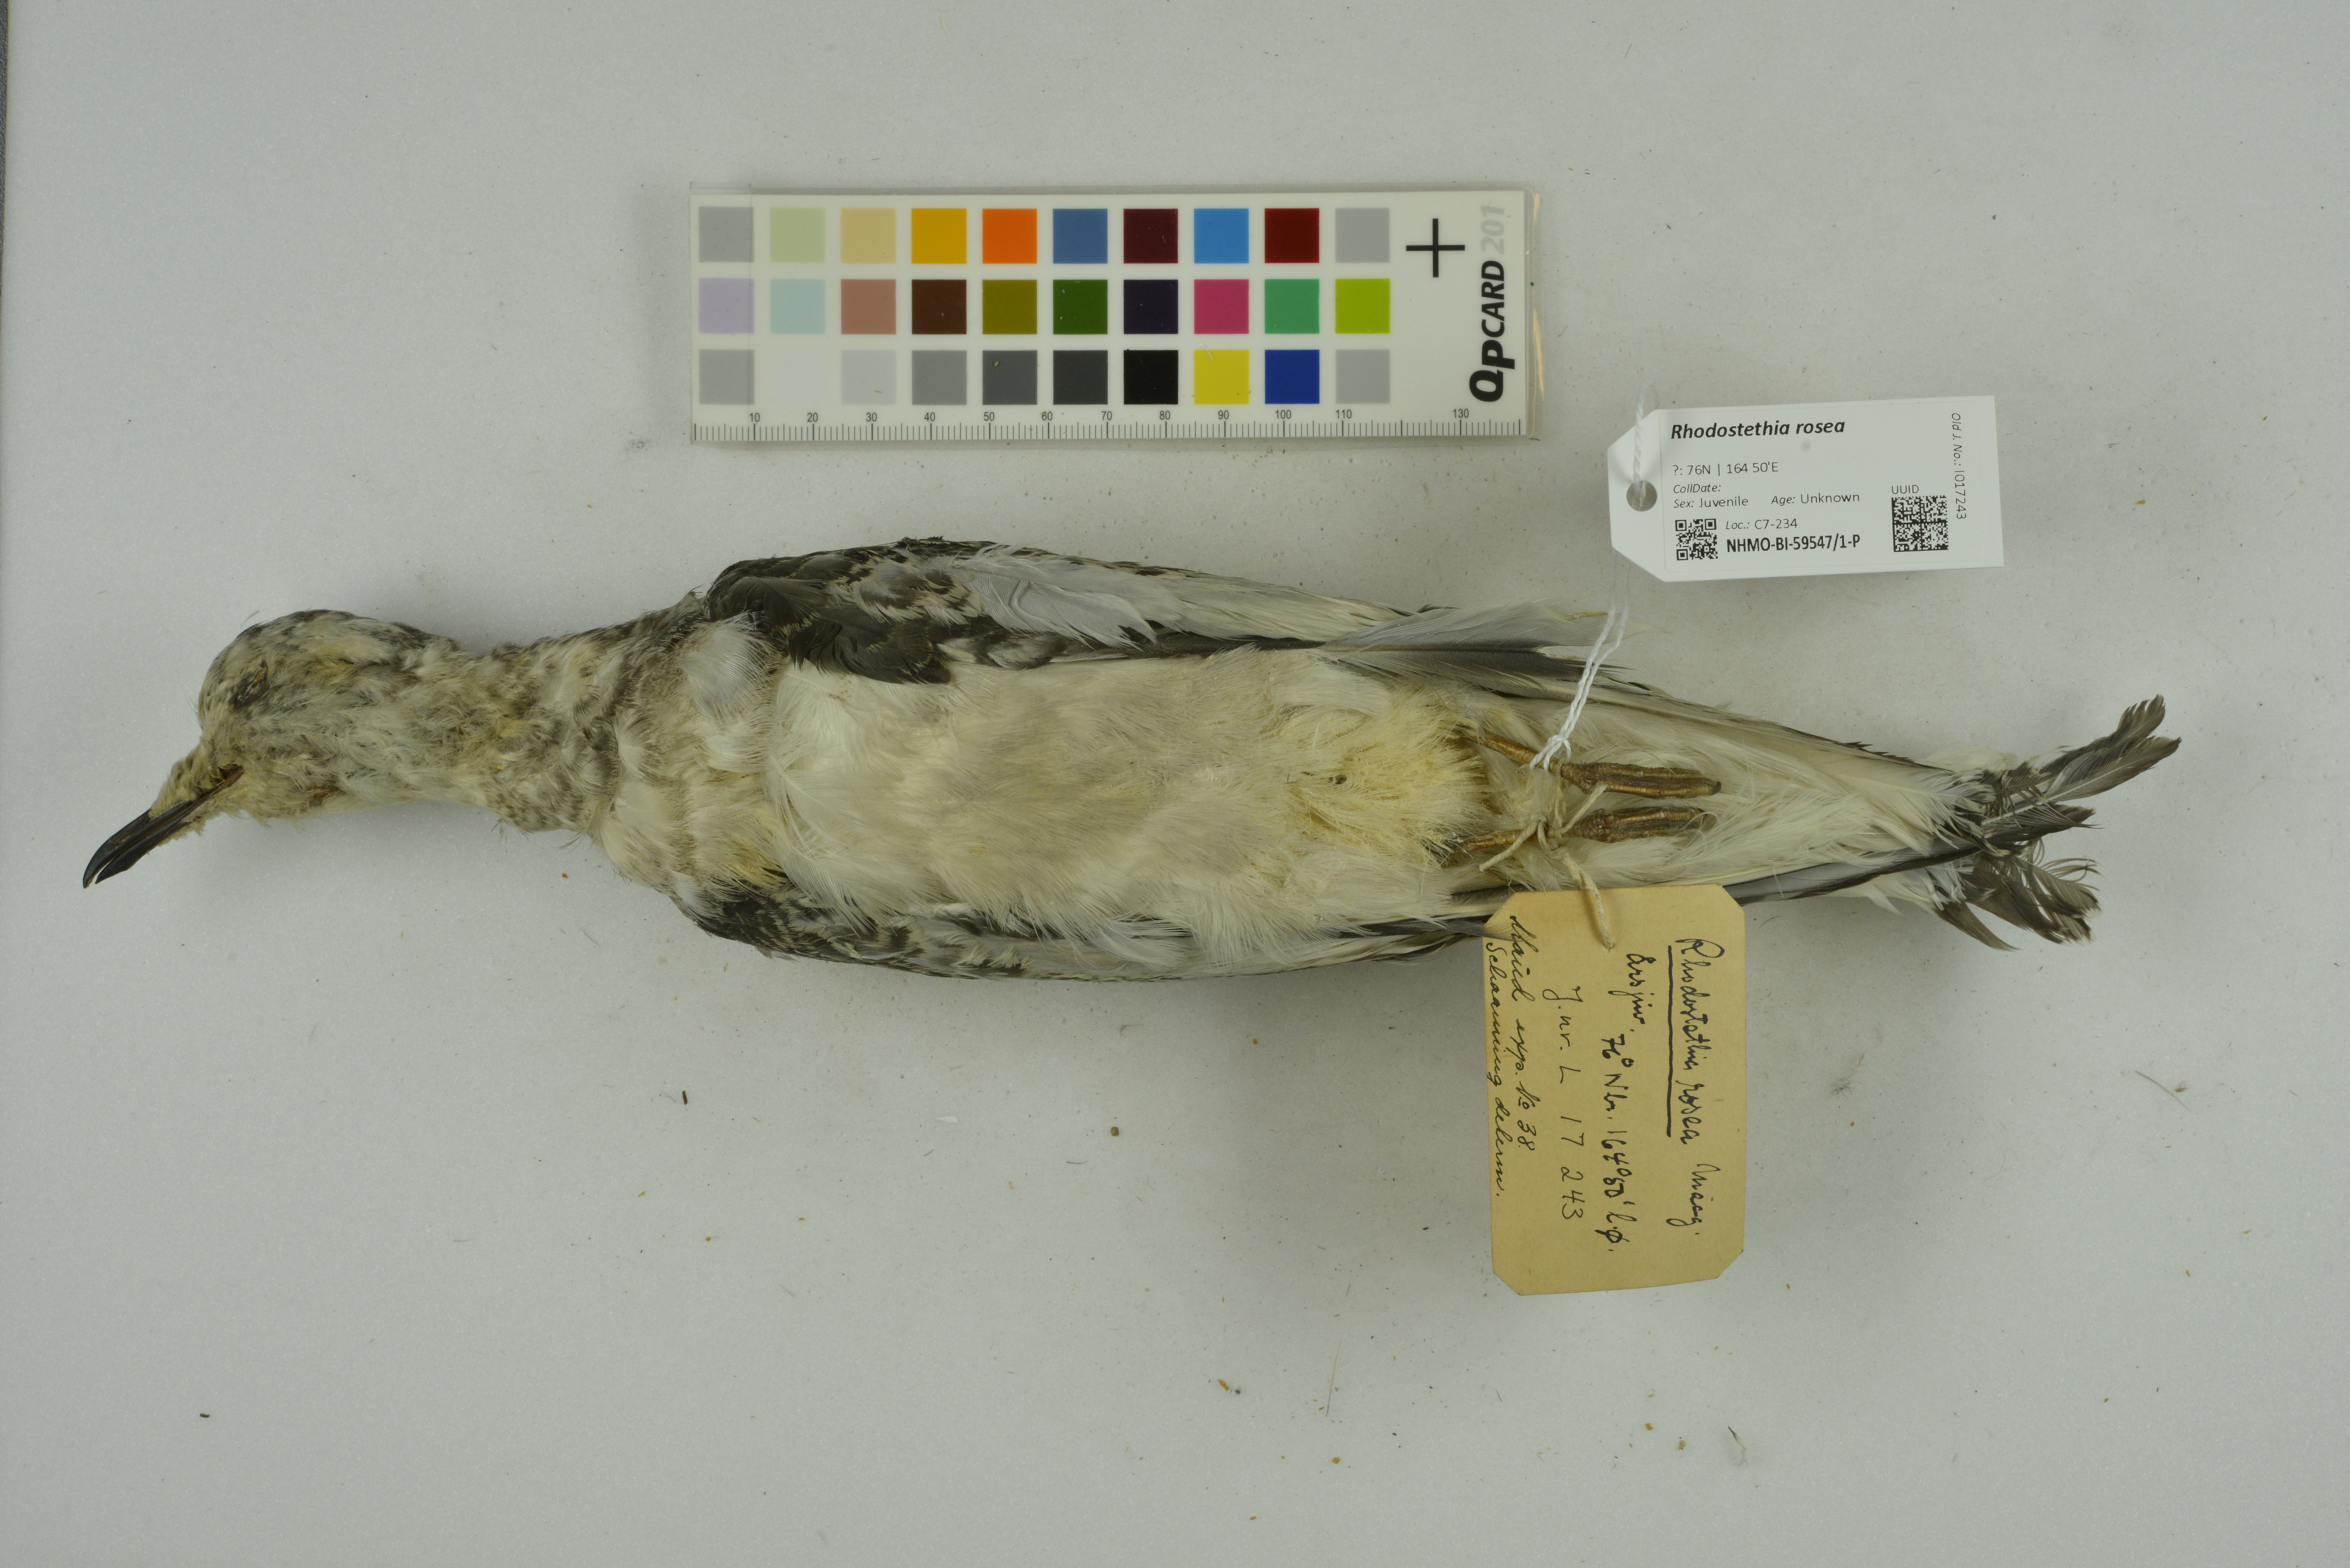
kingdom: Animalia
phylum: Chordata
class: Aves
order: Charadriiformes
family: Laridae
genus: Rhodostethia
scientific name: Rhodostethia rosea
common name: Ross's gull
